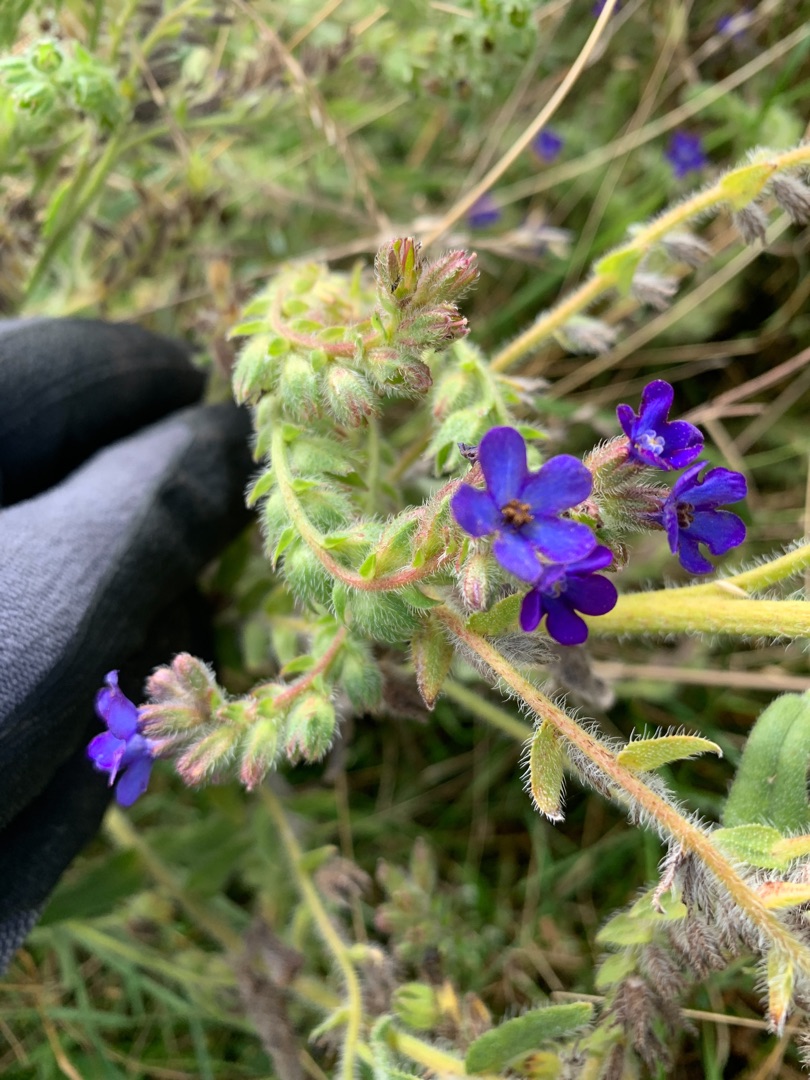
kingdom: Plantae
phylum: Tracheophyta
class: Magnoliopsida
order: Boraginales
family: Boraginaceae
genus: Anchusa
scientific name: Anchusa officinalis
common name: Læge-oksetunge
